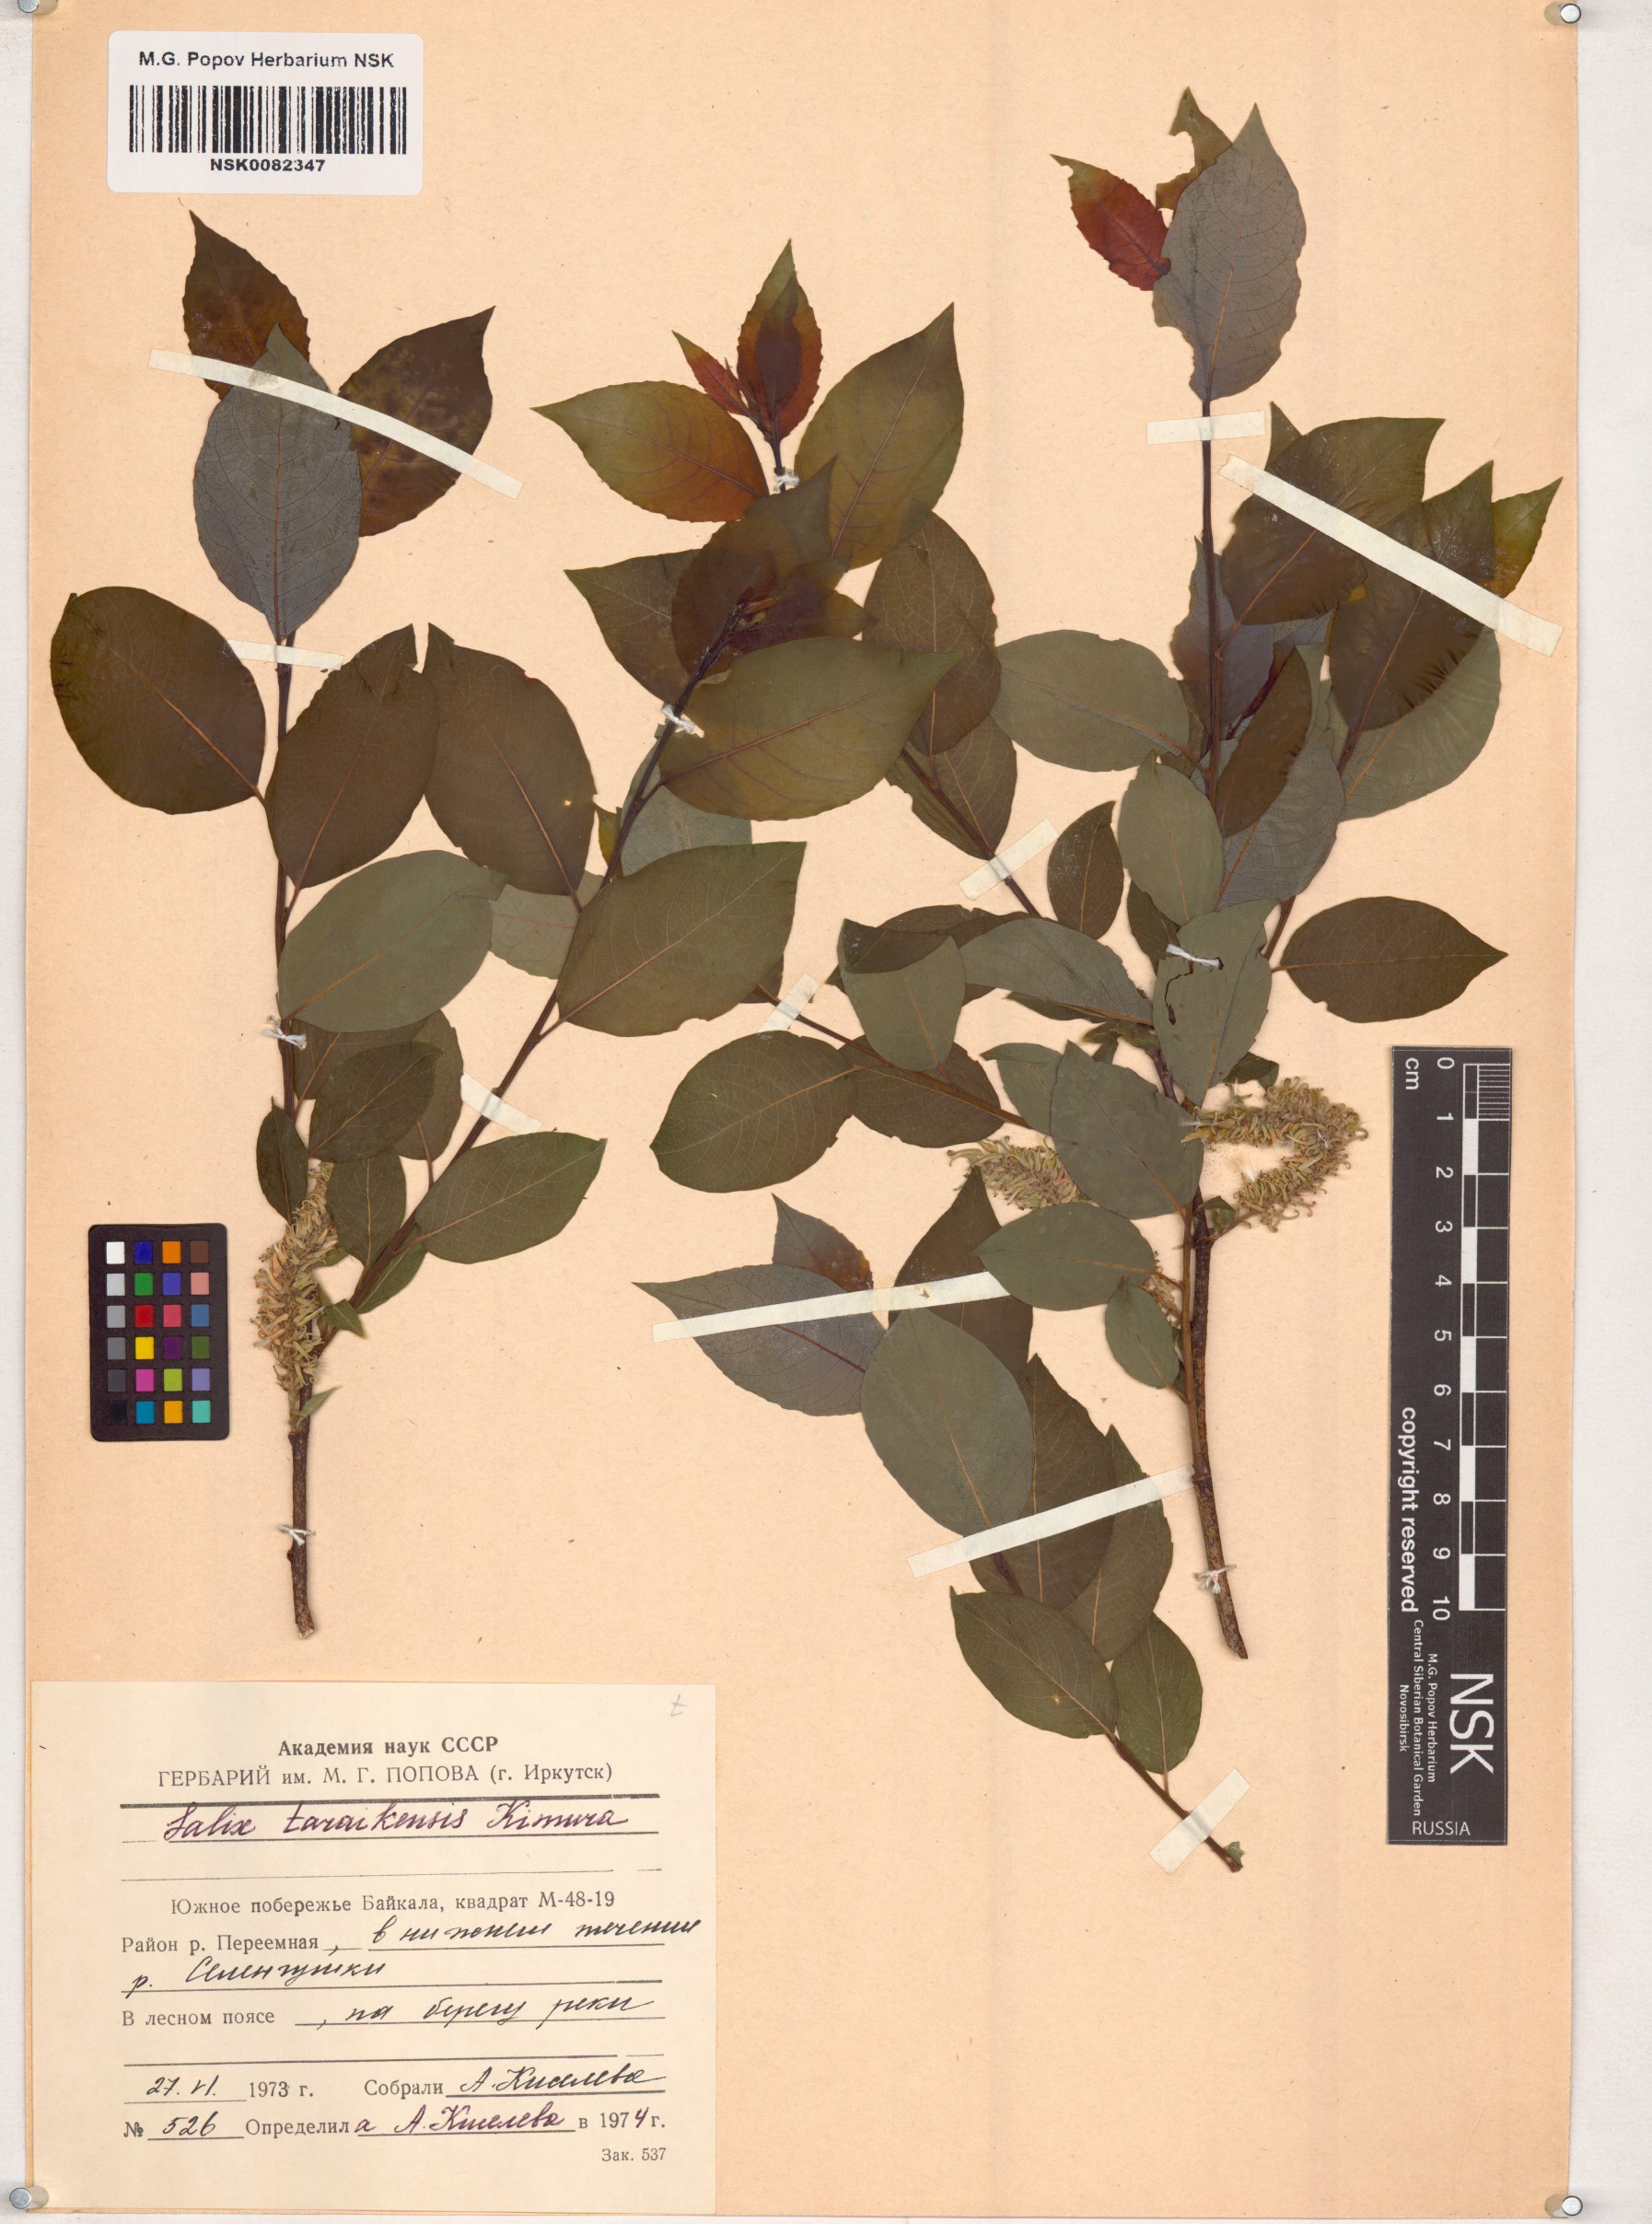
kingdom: Plantae
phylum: Tracheophyta
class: Magnoliopsida
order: Malpighiales
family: Salicaceae
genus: Salix
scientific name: Salix taraikensis
